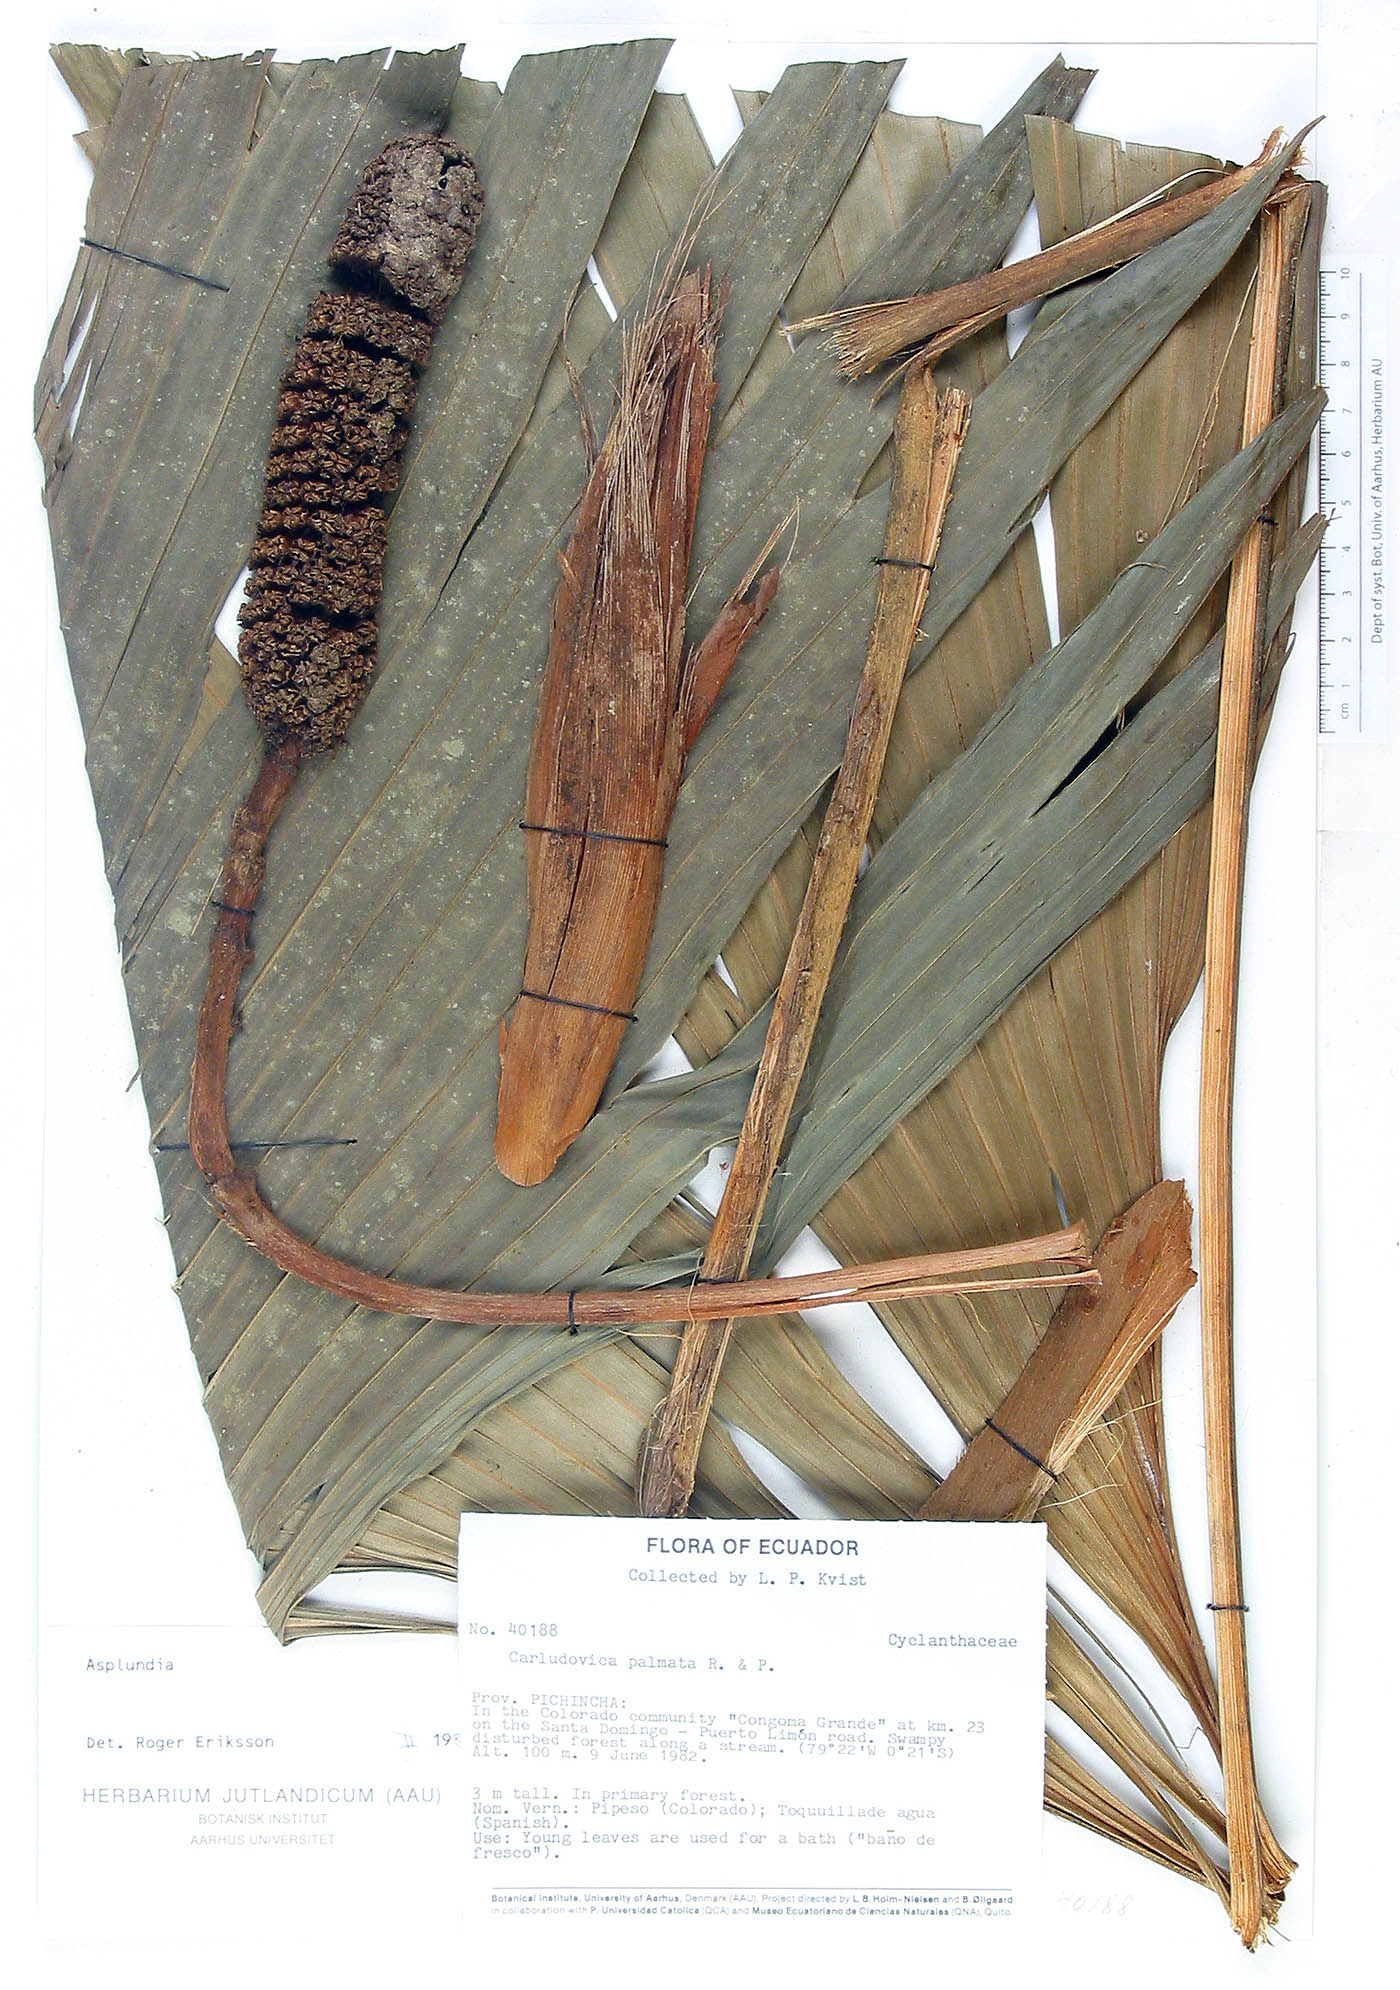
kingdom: Plantae
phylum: Tracheophyta
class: Liliopsida
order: Pandanales
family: Cyclanthaceae
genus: Asplundia
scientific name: Asplundia
